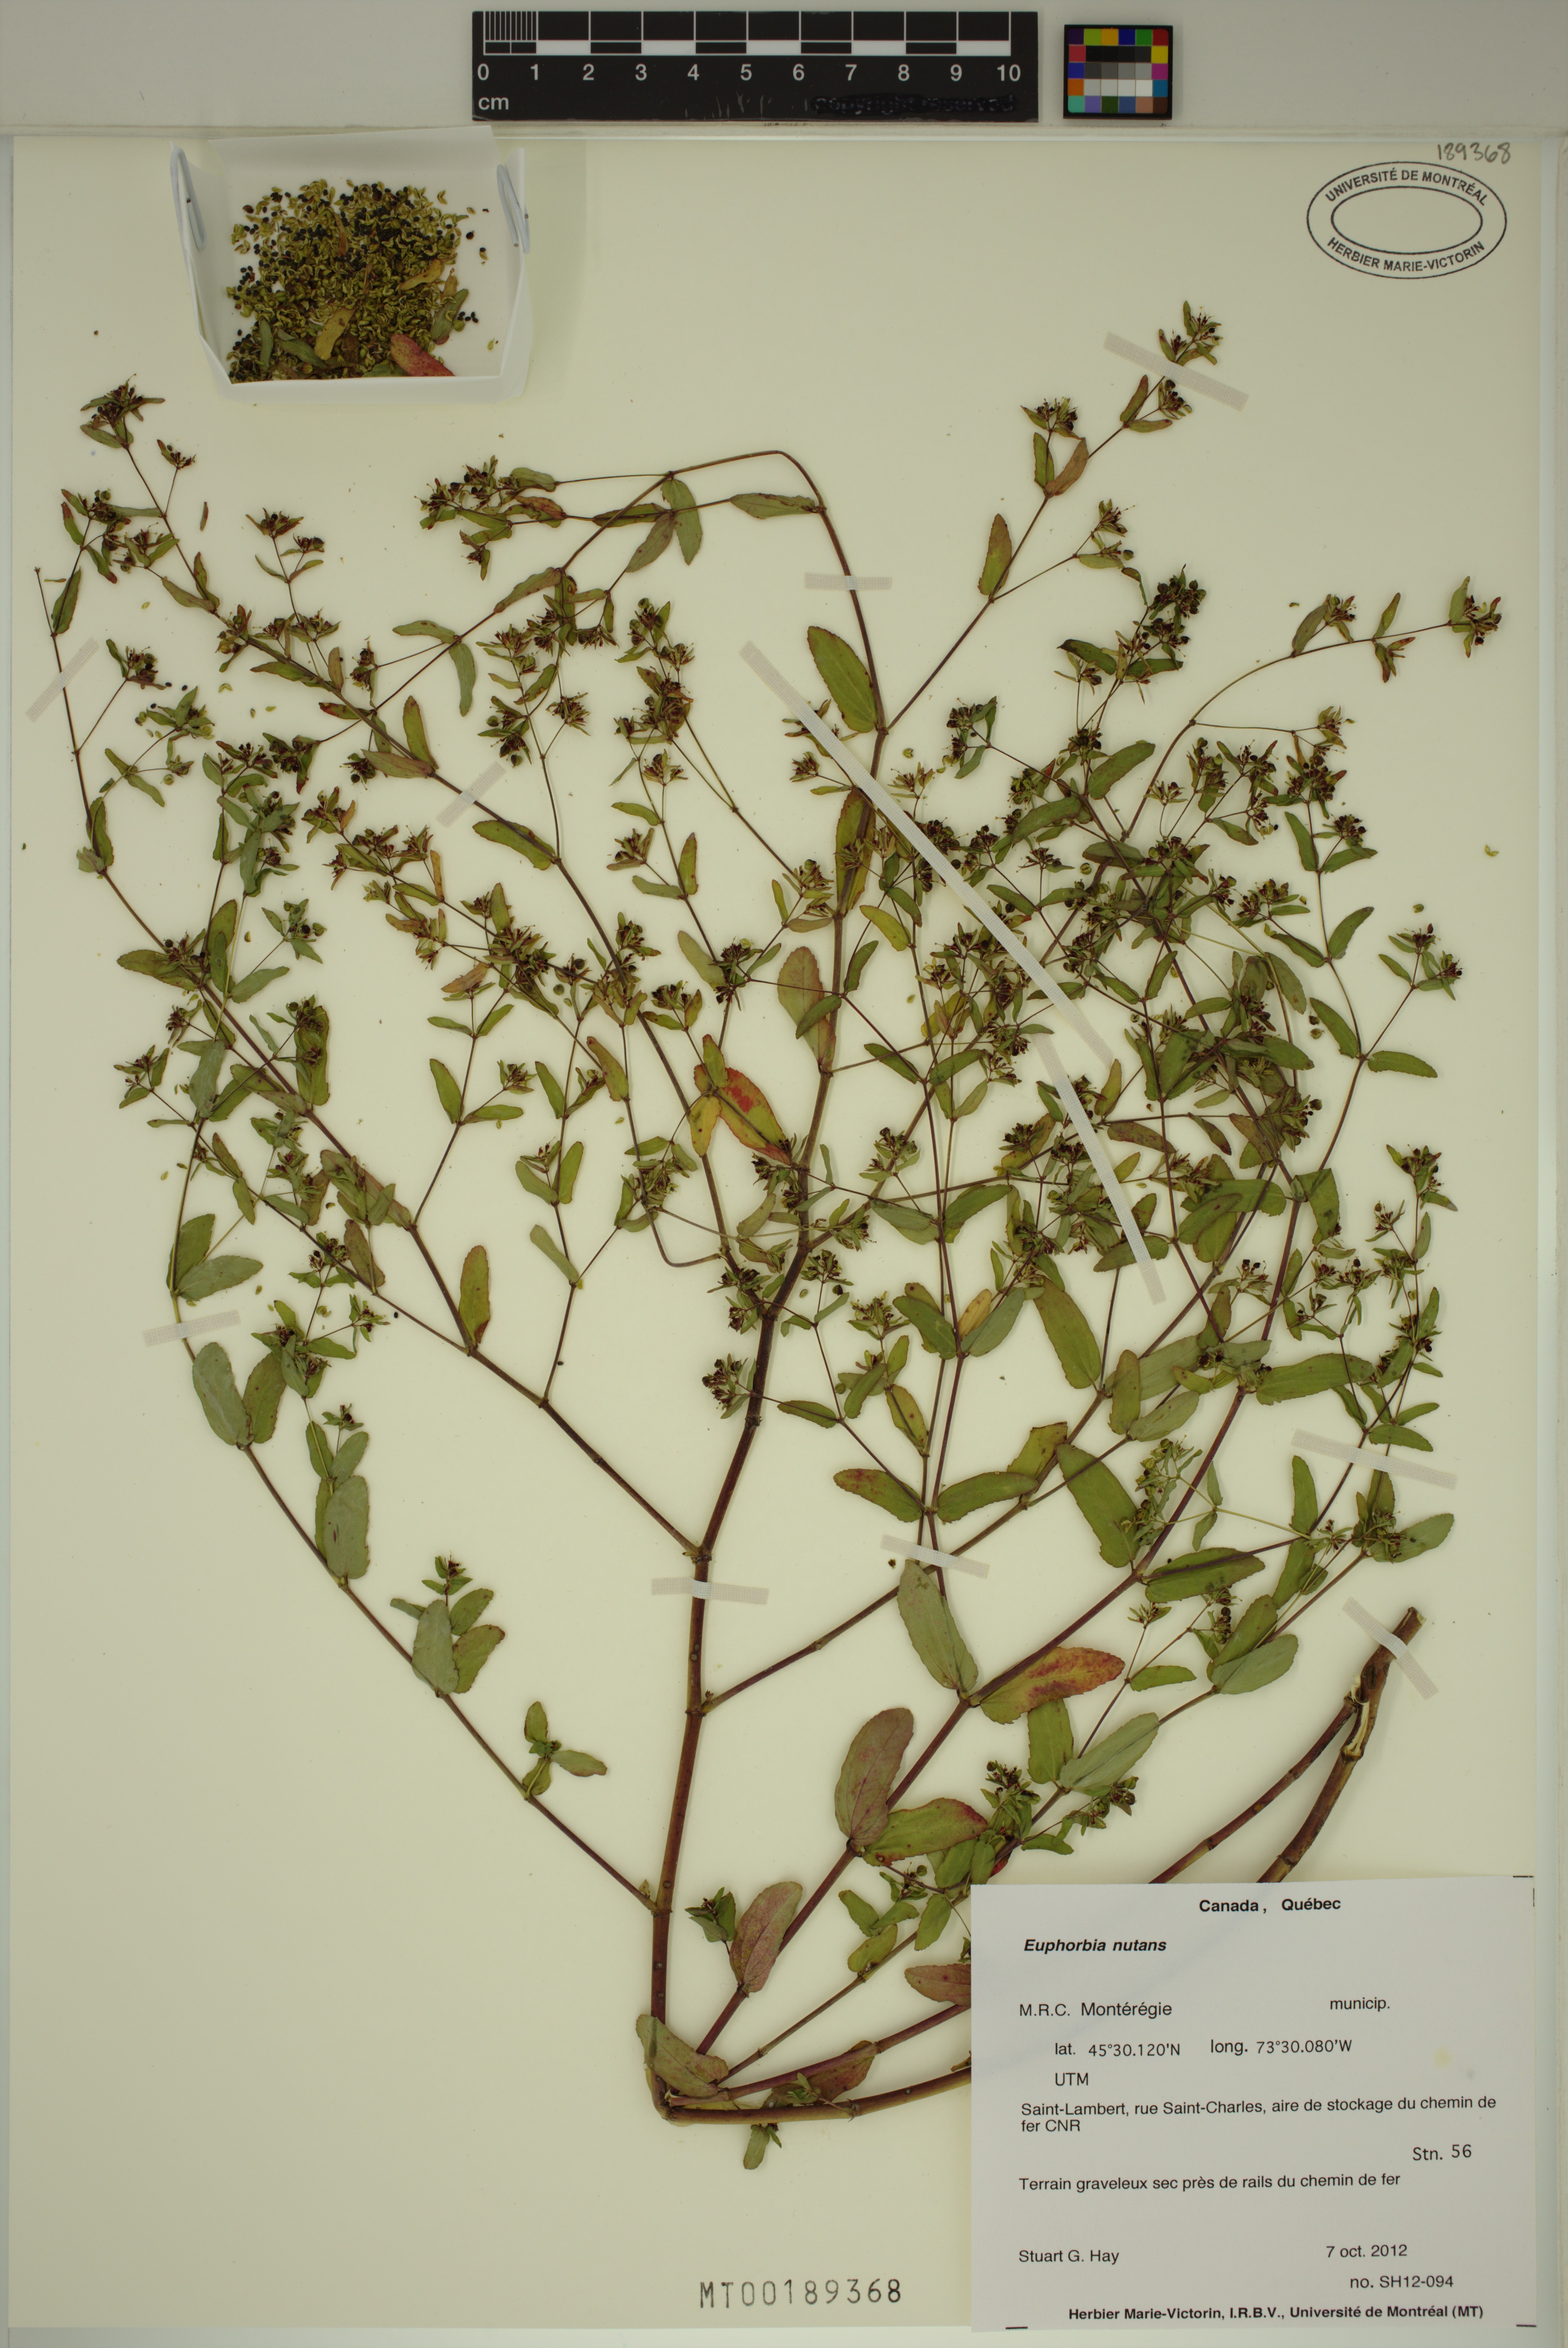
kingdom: Plantae
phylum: Tracheophyta
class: Magnoliopsida
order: Malpighiales
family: Euphorbiaceae
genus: Euphorbia
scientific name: Euphorbia nutans
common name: Eyebane
